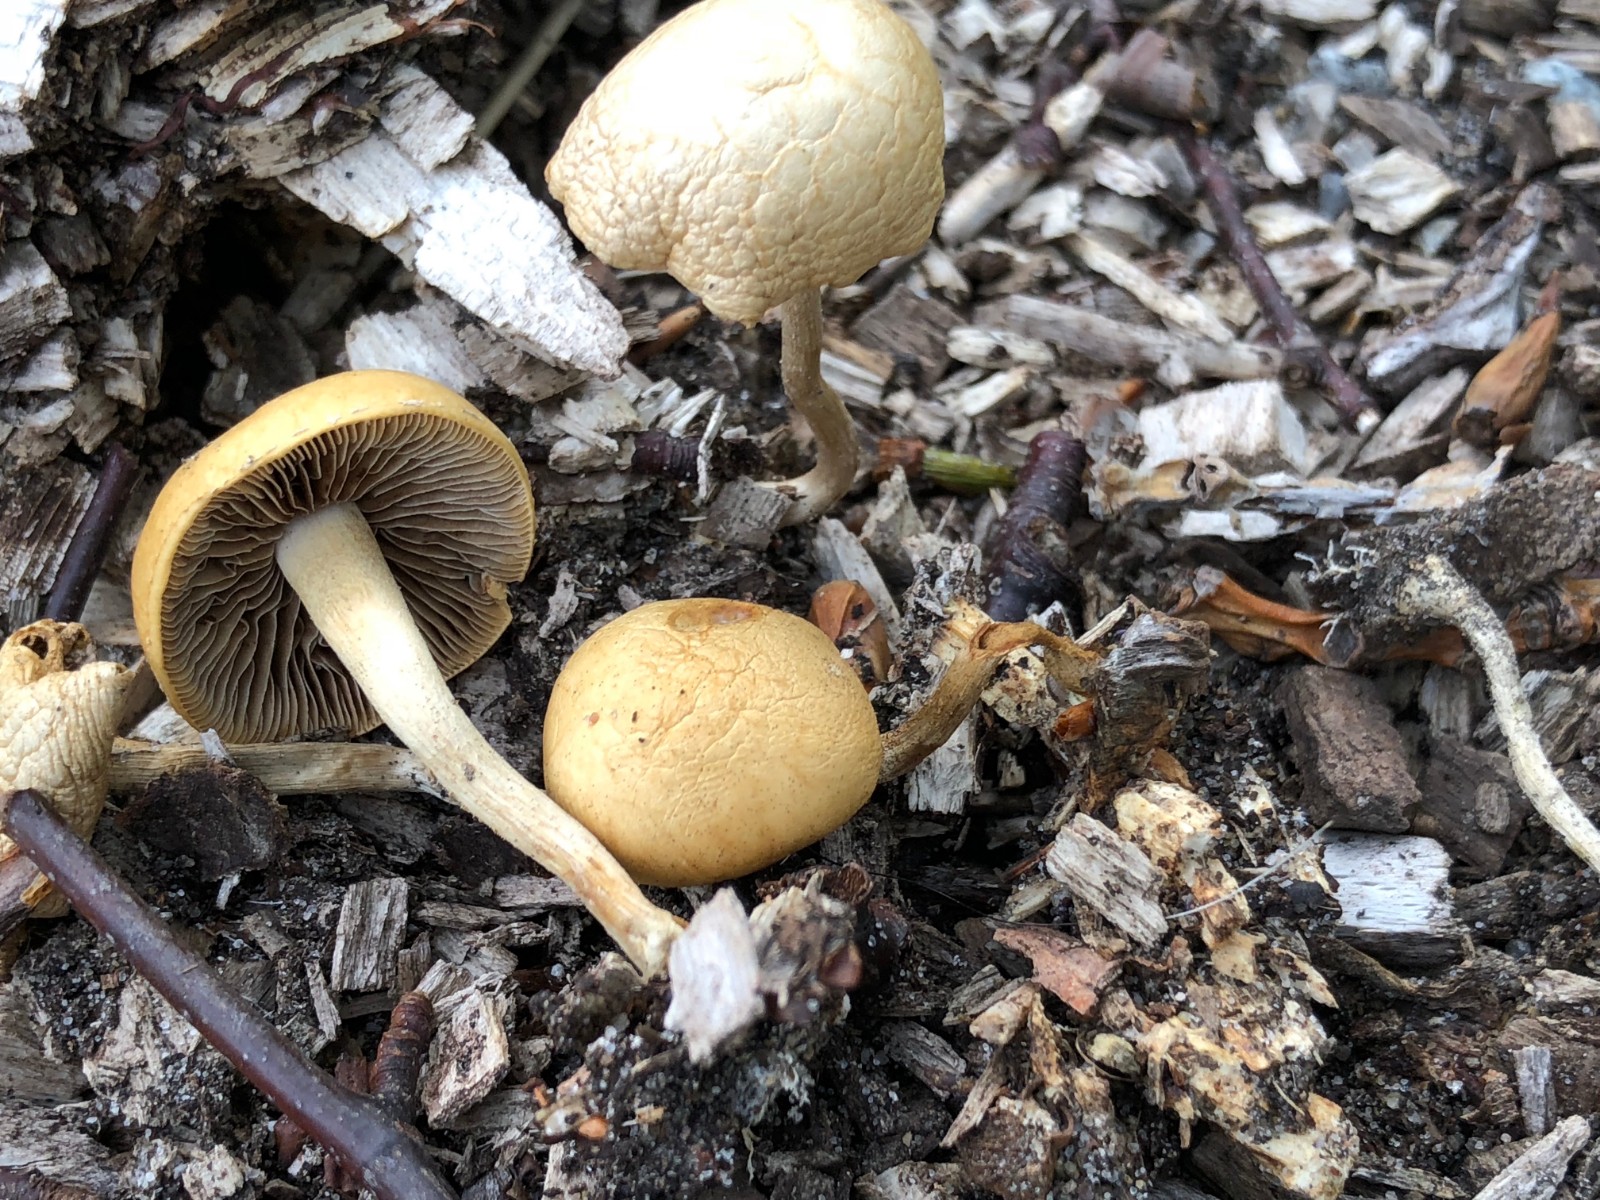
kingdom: Fungi
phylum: Basidiomycota
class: Agaricomycetes
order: Agaricales
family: Strophariaceae
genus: Agrocybe
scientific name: Agrocybe
